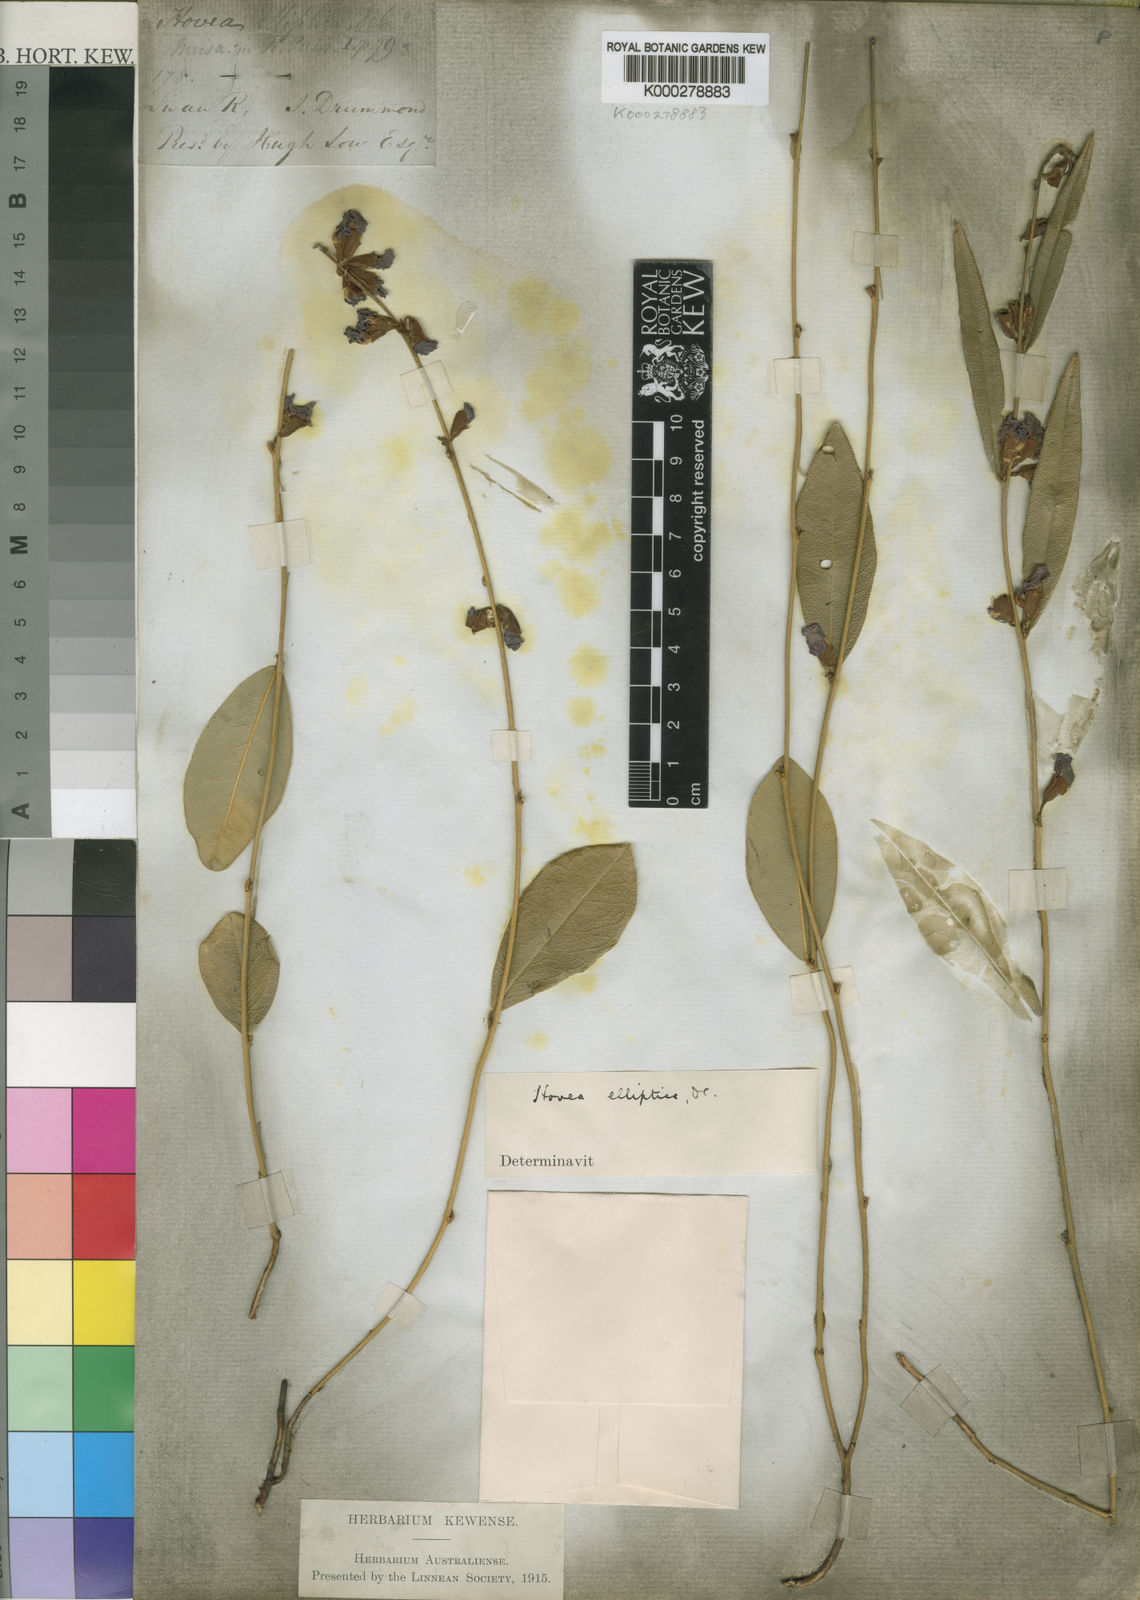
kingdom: Plantae
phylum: Tracheophyta
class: Magnoliopsida
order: Fabales
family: Fabaceae
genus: Hovea
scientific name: Hovea elliptica
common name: Tree hovea
